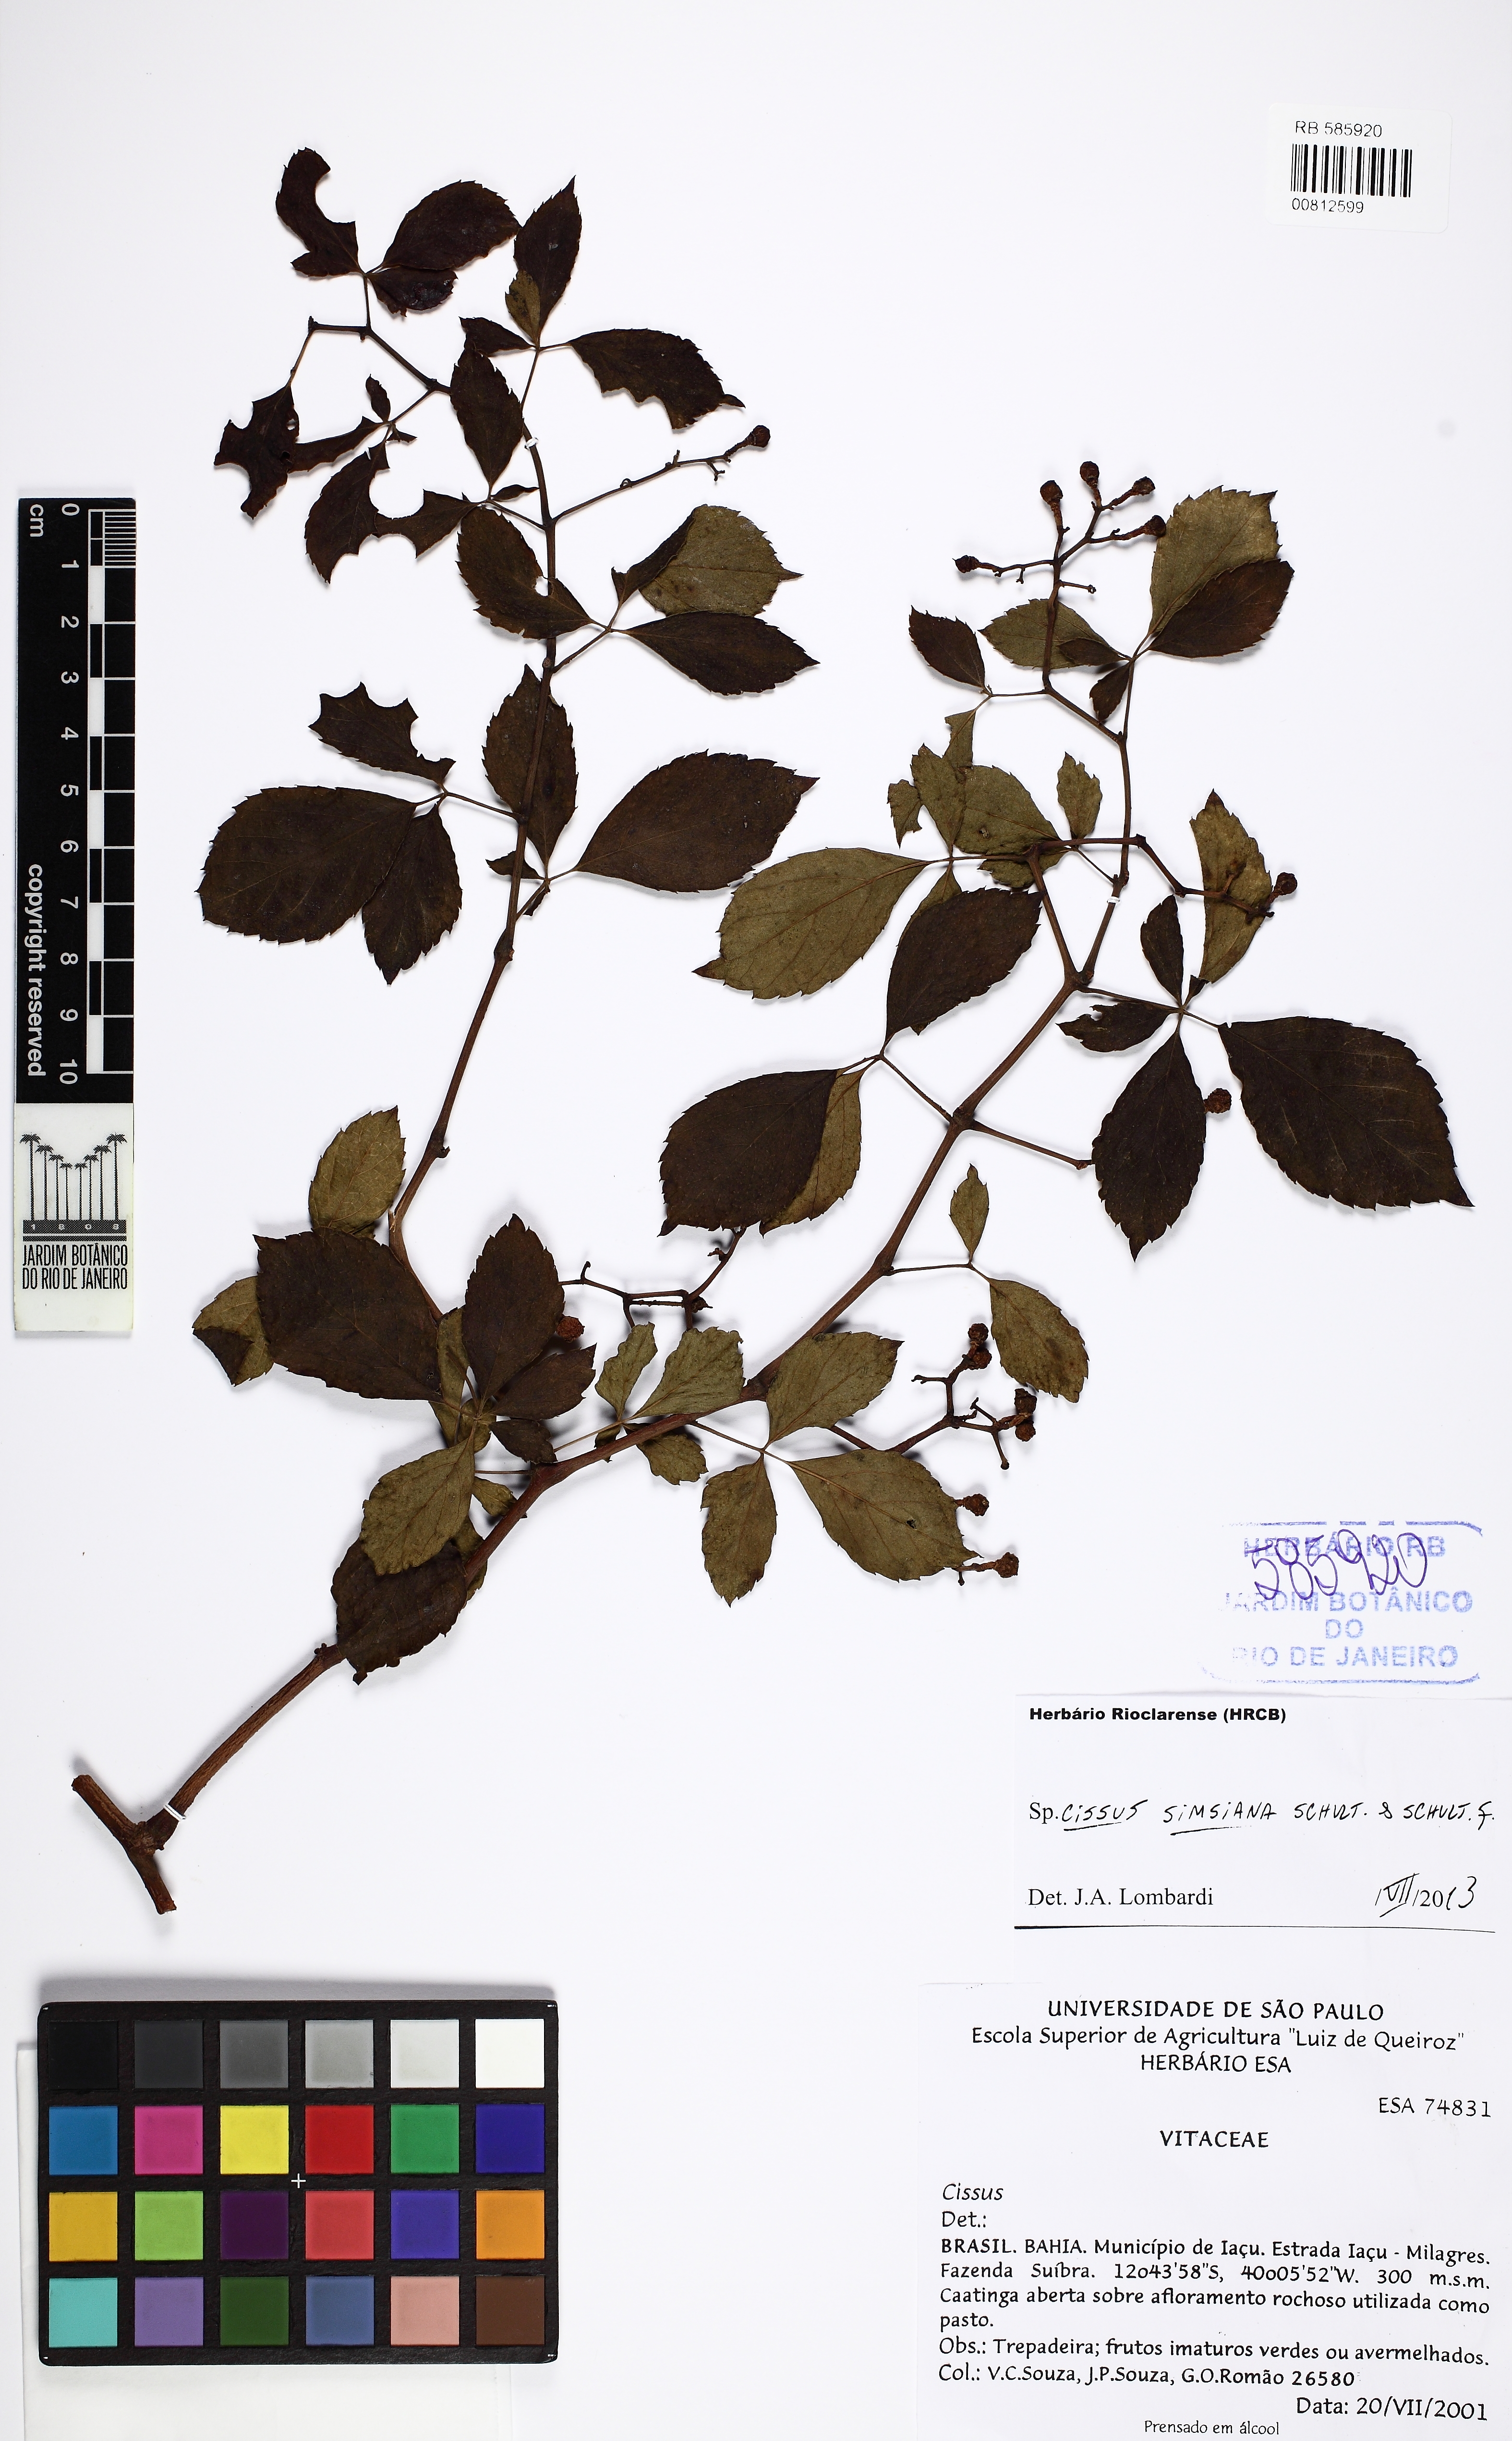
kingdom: Plantae
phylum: Tracheophyta
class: Magnoliopsida
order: Vitales
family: Vitaceae
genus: Clematicissus
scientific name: Clematicissus simsiana
